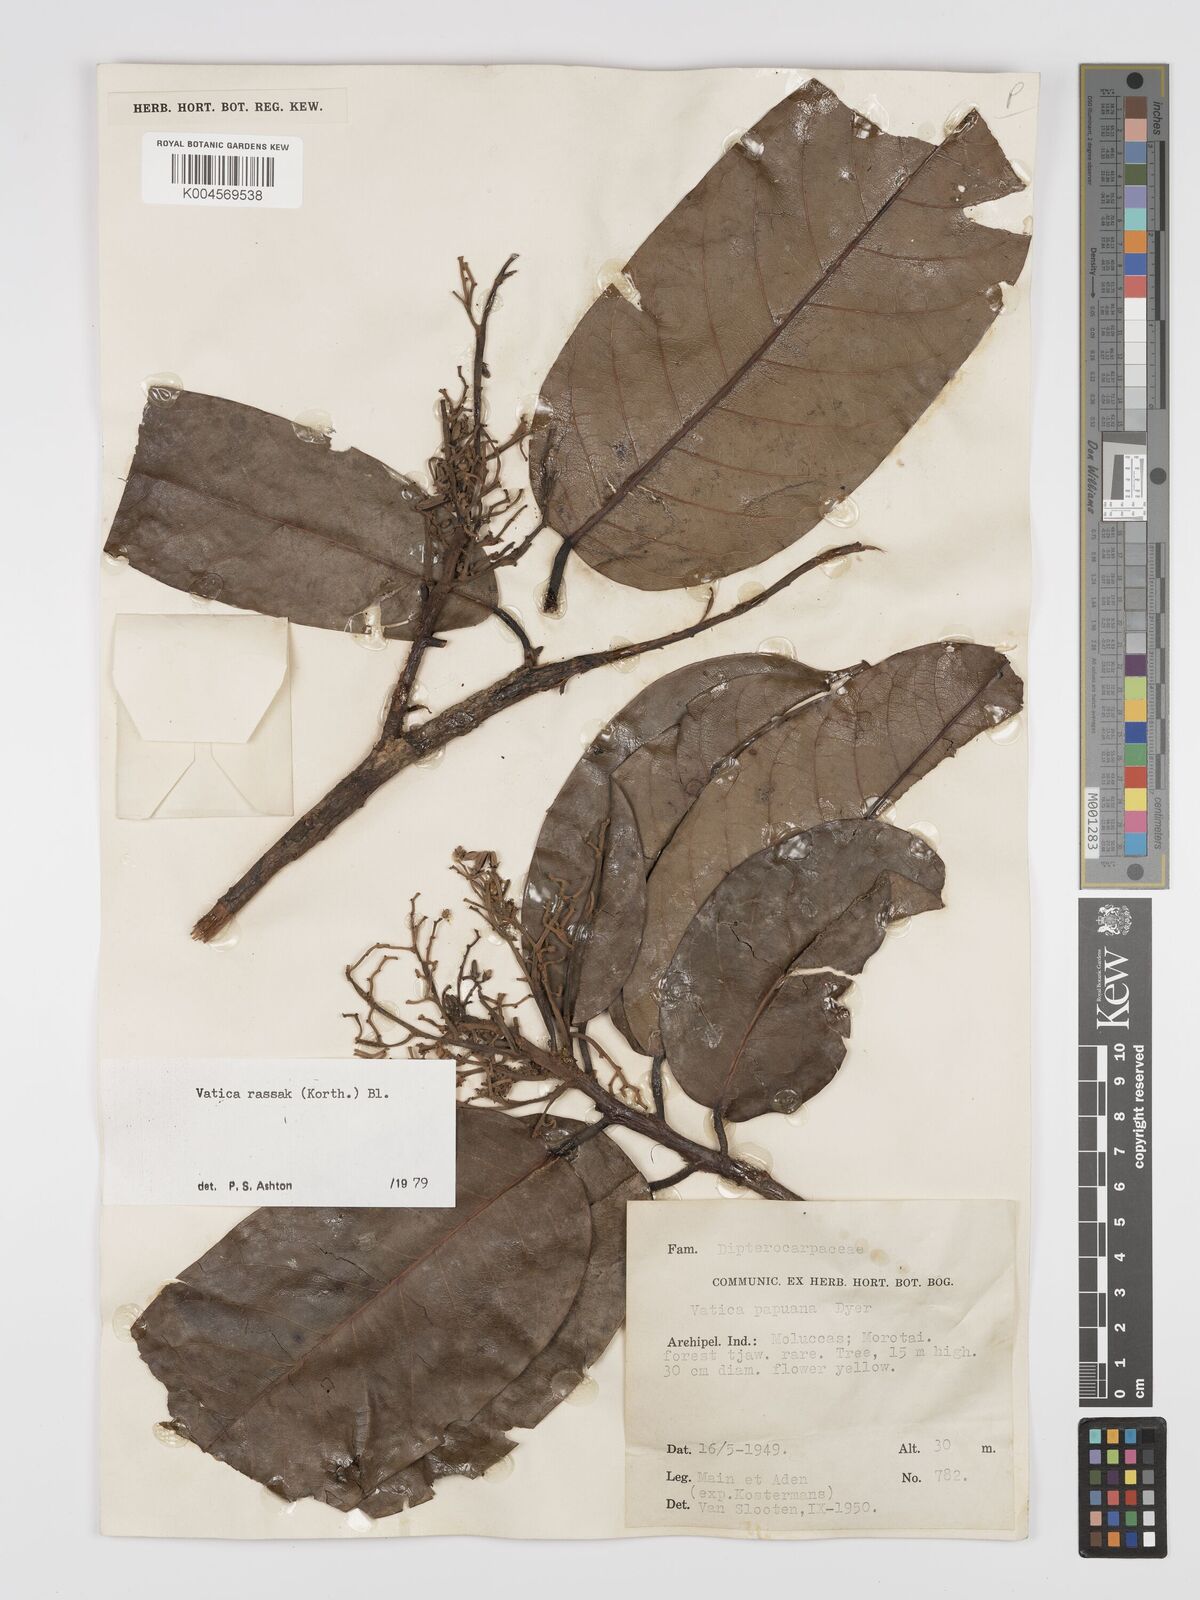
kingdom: Plantae
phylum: Tracheophyta
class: Magnoliopsida
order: Malvales
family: Dipterocarpaceae
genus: Vatica
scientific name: Vatica rassak
